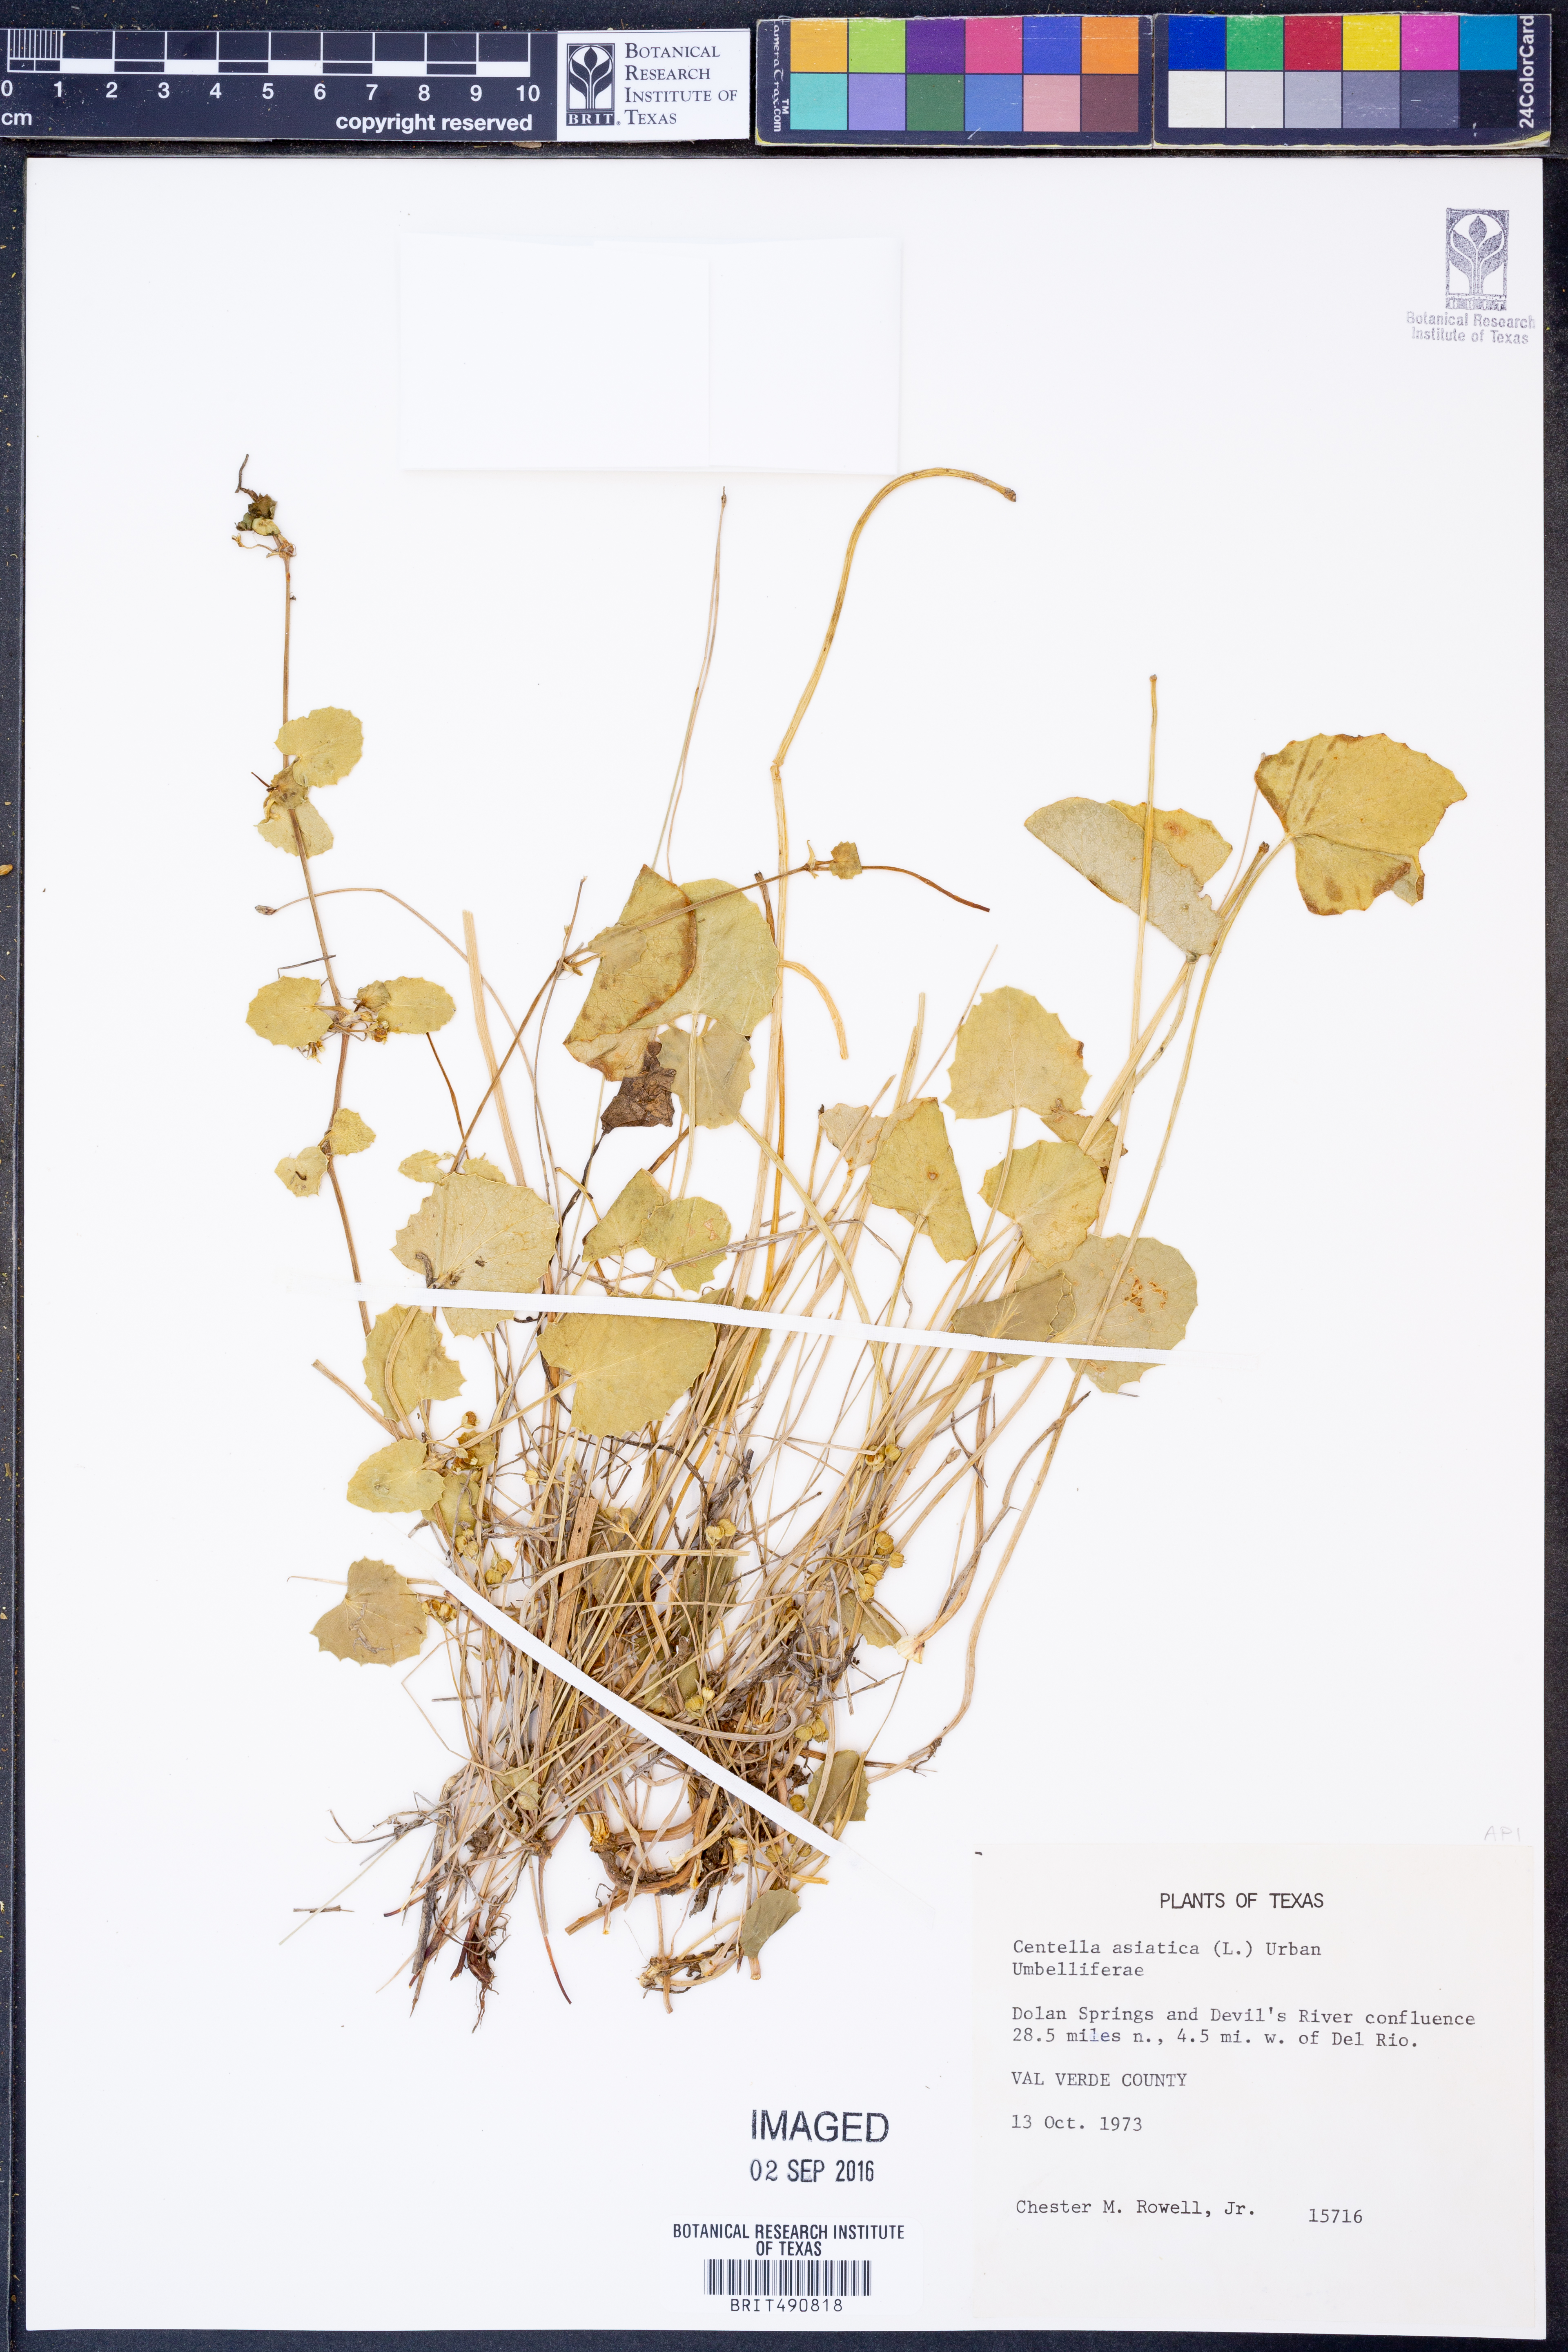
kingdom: Plantae
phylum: Tracheophyta
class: Magnoliopsida
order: Apiales
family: Apiaceae
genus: Centella
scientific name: Centella asiatica
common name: Spadeleaf
